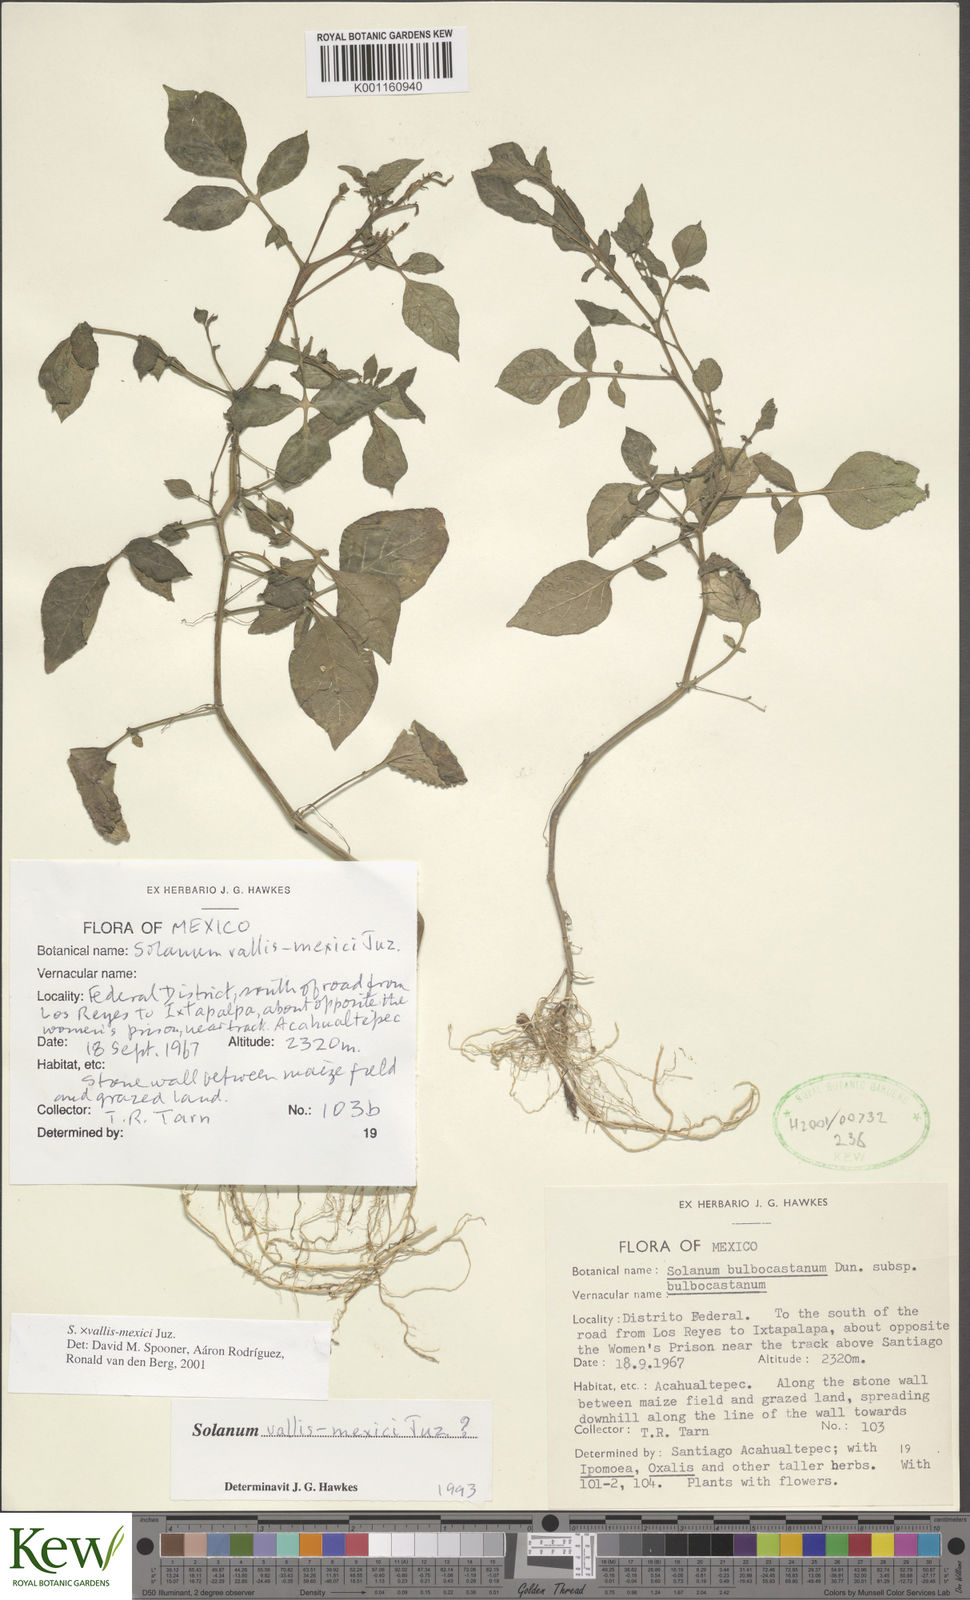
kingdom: Plantae
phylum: Tracheophyta
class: Magnoliopsida
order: Solanales
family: Solanaceae
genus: Solanum
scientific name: Solanum vallis-mexici
